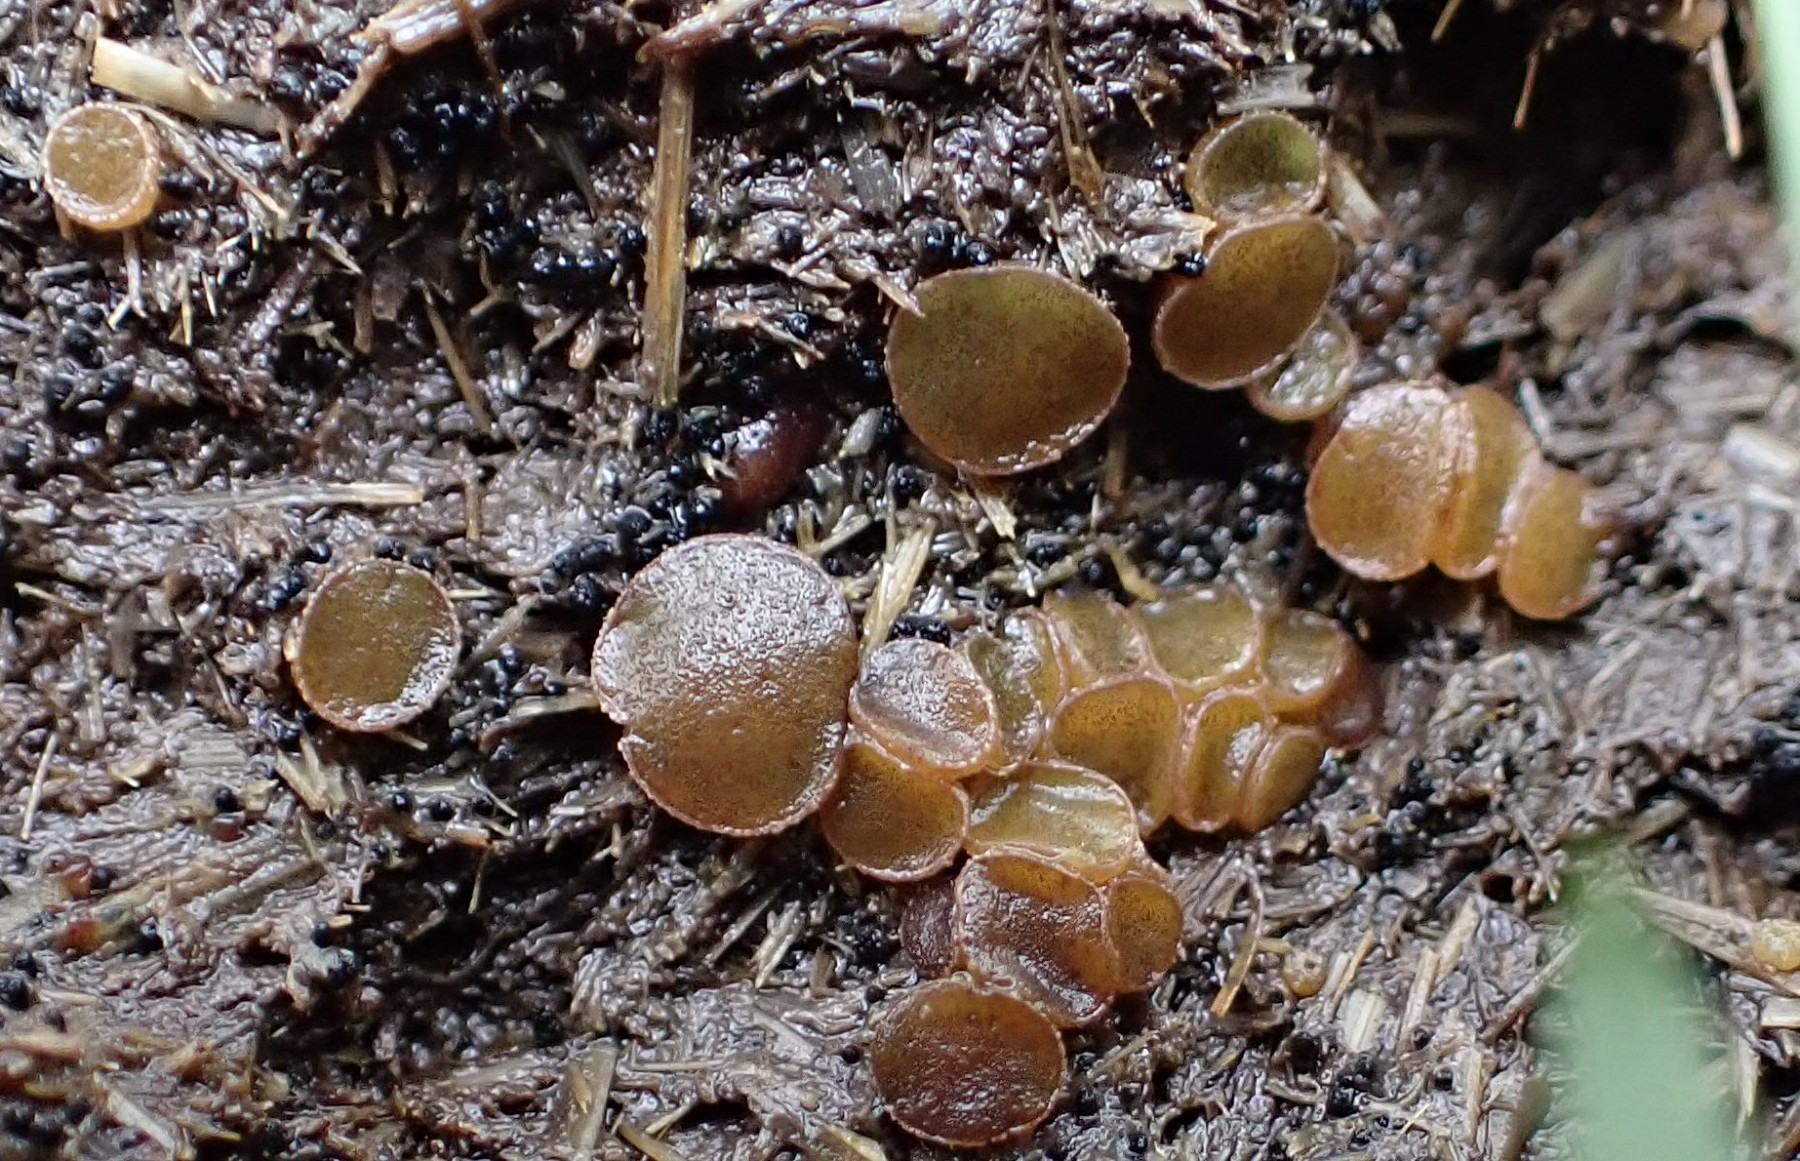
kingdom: Fungi
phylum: Ascomycota
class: Pezizomycetes
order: Pezizales
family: Ascobolaceae
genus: Ascobolus
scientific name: Ascobolus furfuraceus
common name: almindelig prikbæger
